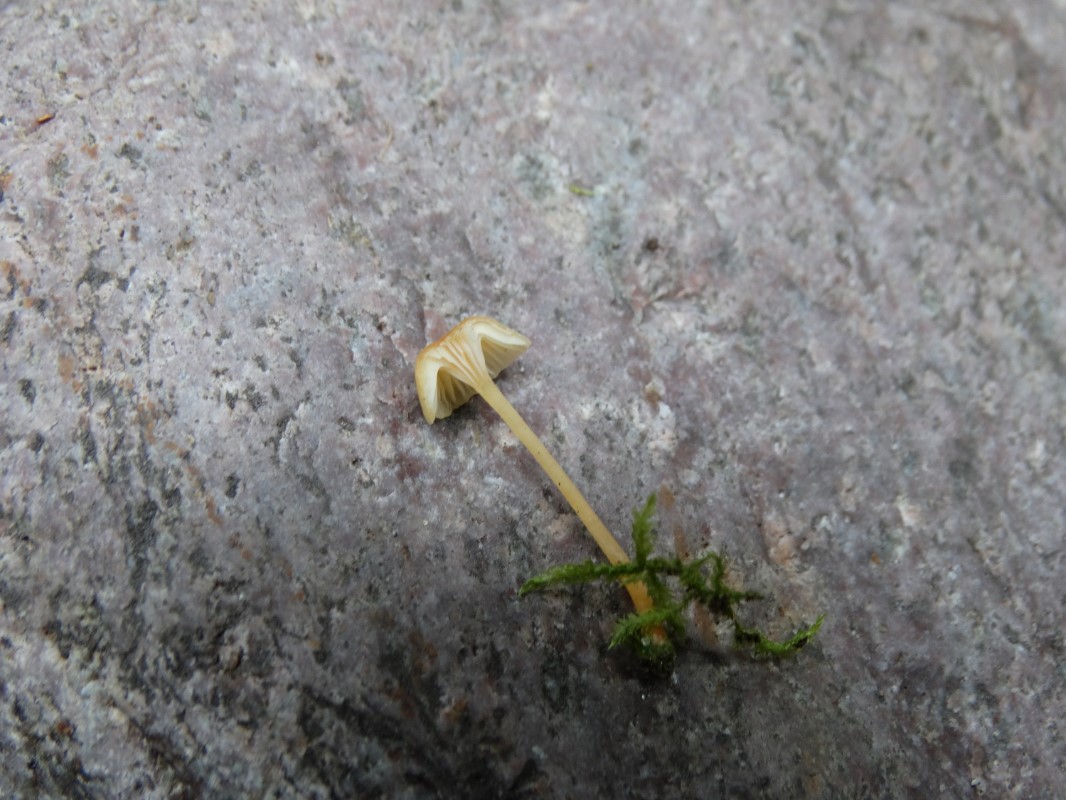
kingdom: Fungi
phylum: Basidiomycota
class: Agaricomycetes
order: Hymenochaetales
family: Rickenellaceae
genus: Rickenella
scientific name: Rickenella fibula
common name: orange mosnavlehat
